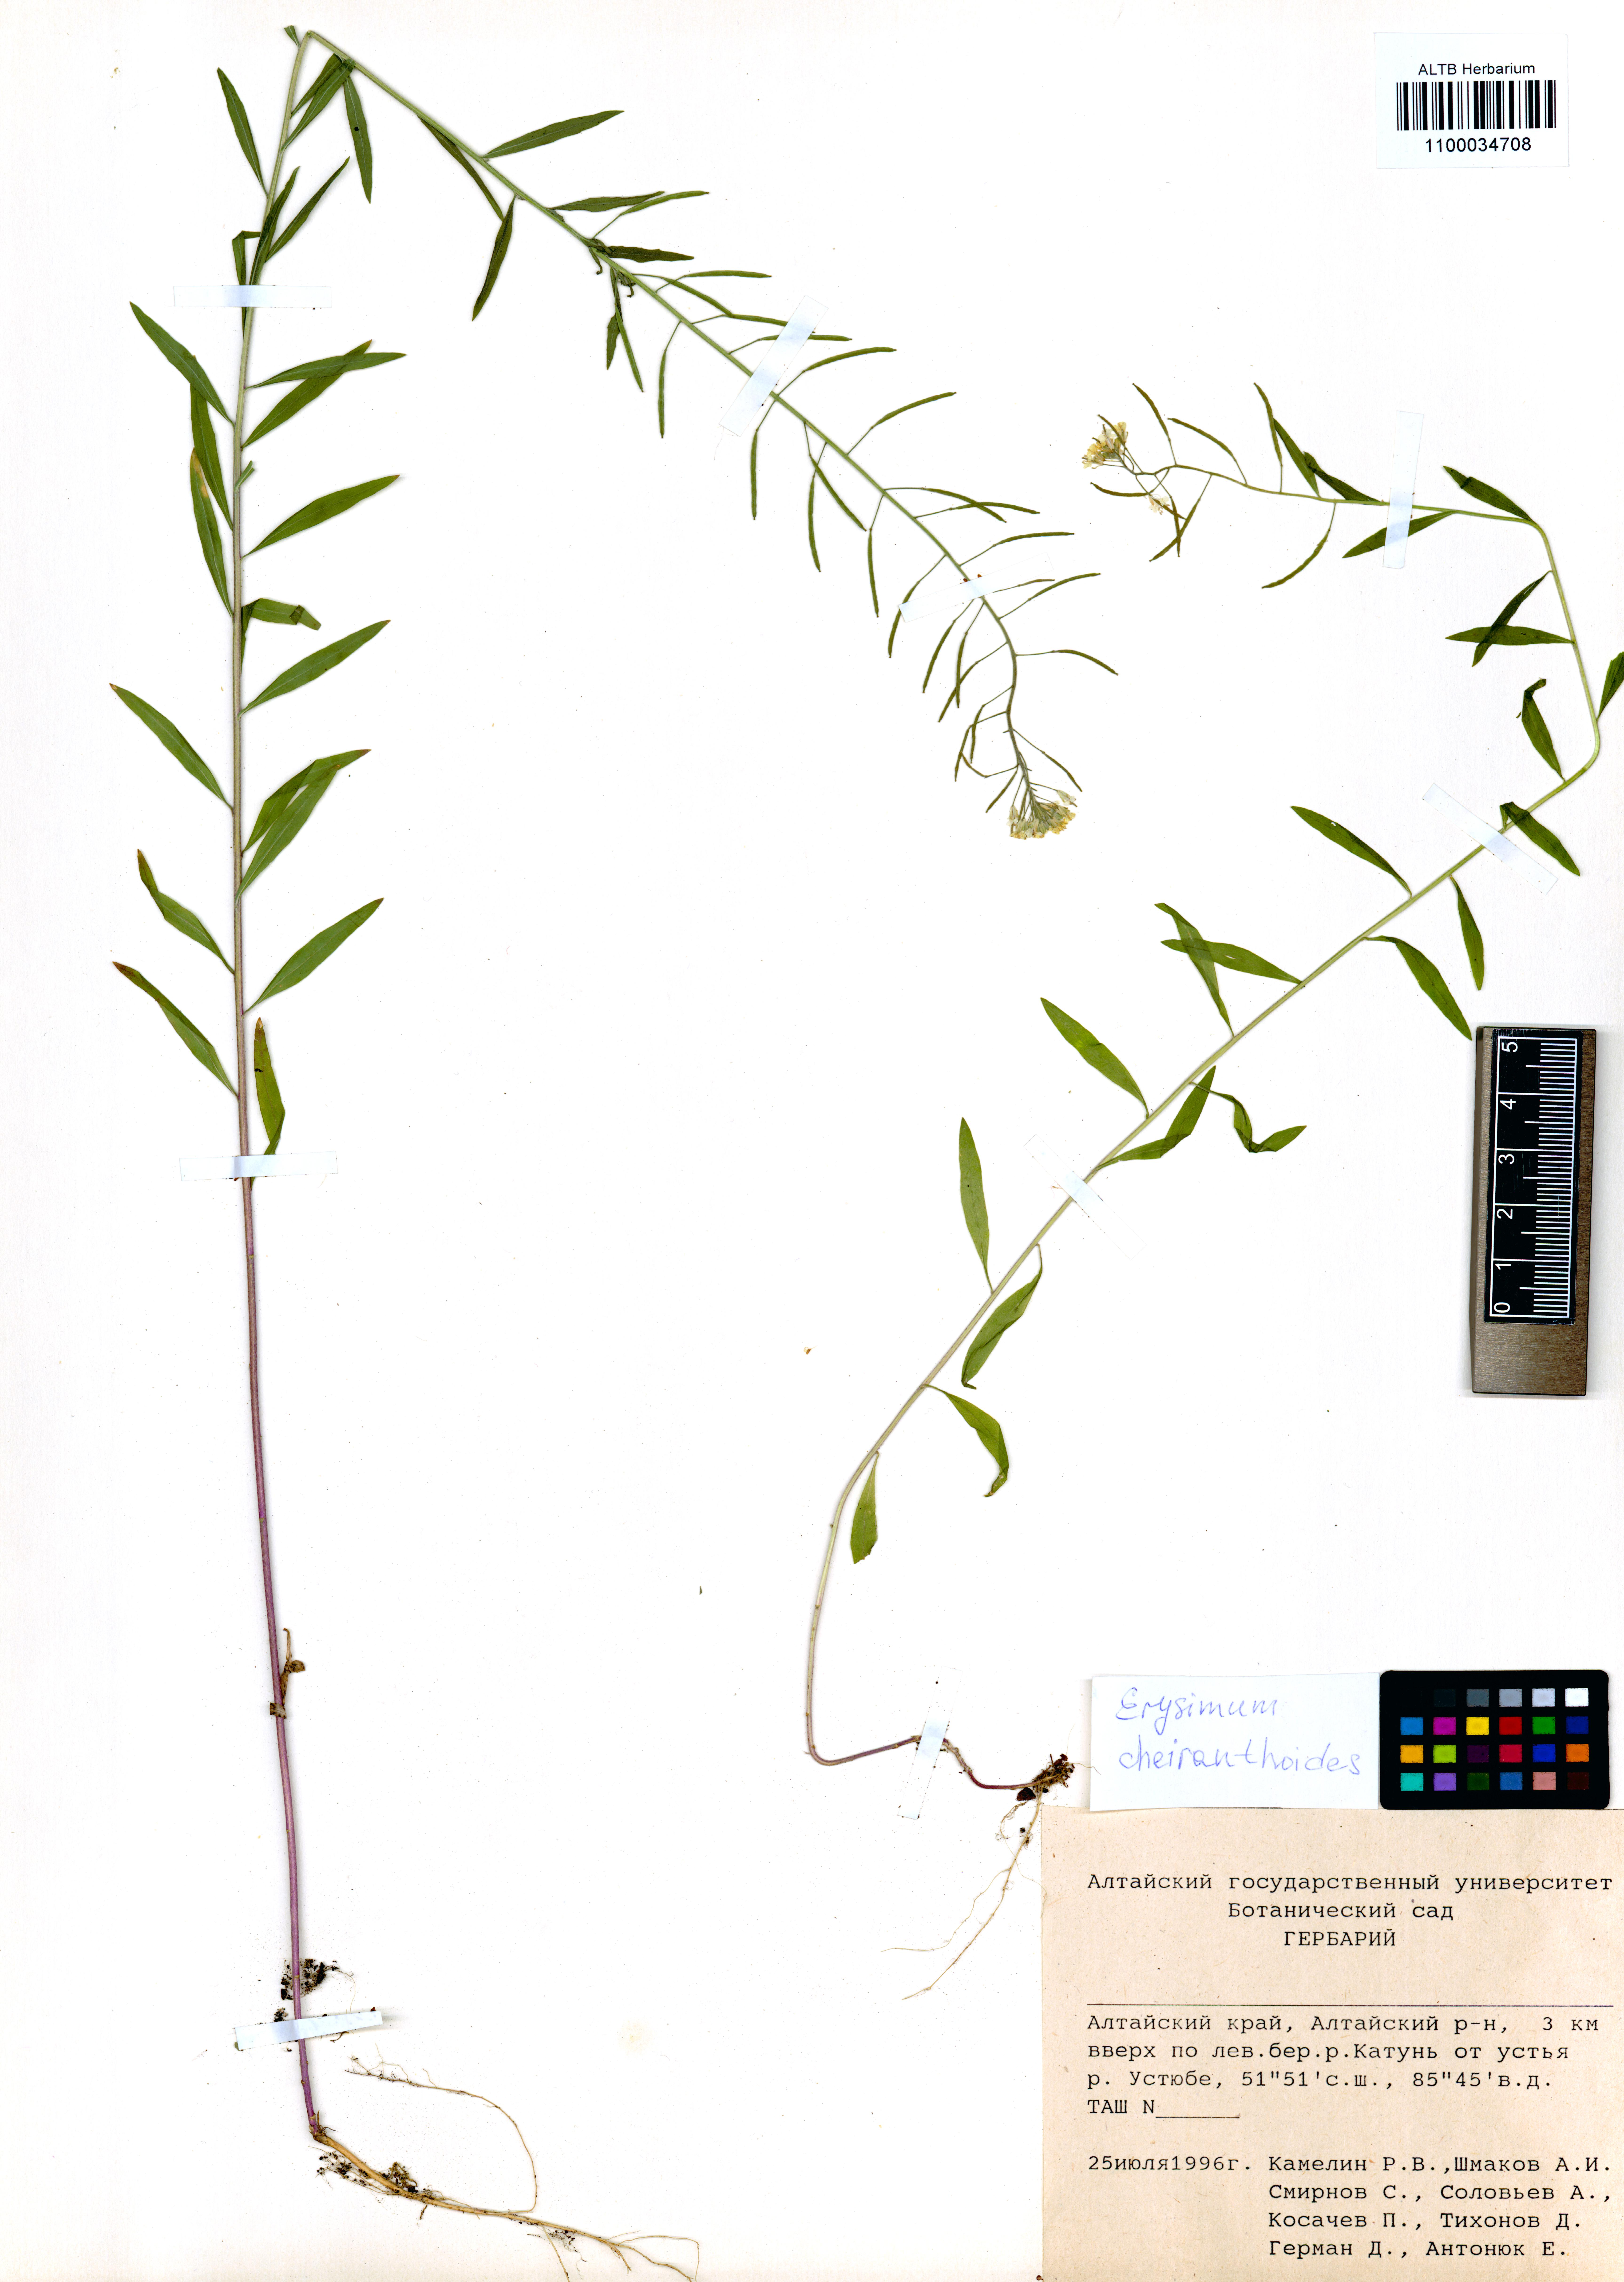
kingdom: Plantae
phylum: Tracheophyta
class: Magnoliopsida
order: Brassicales
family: Brassicaceae
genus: Erysimum
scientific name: Erysimum cheiranthoides
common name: Treacle mustard
